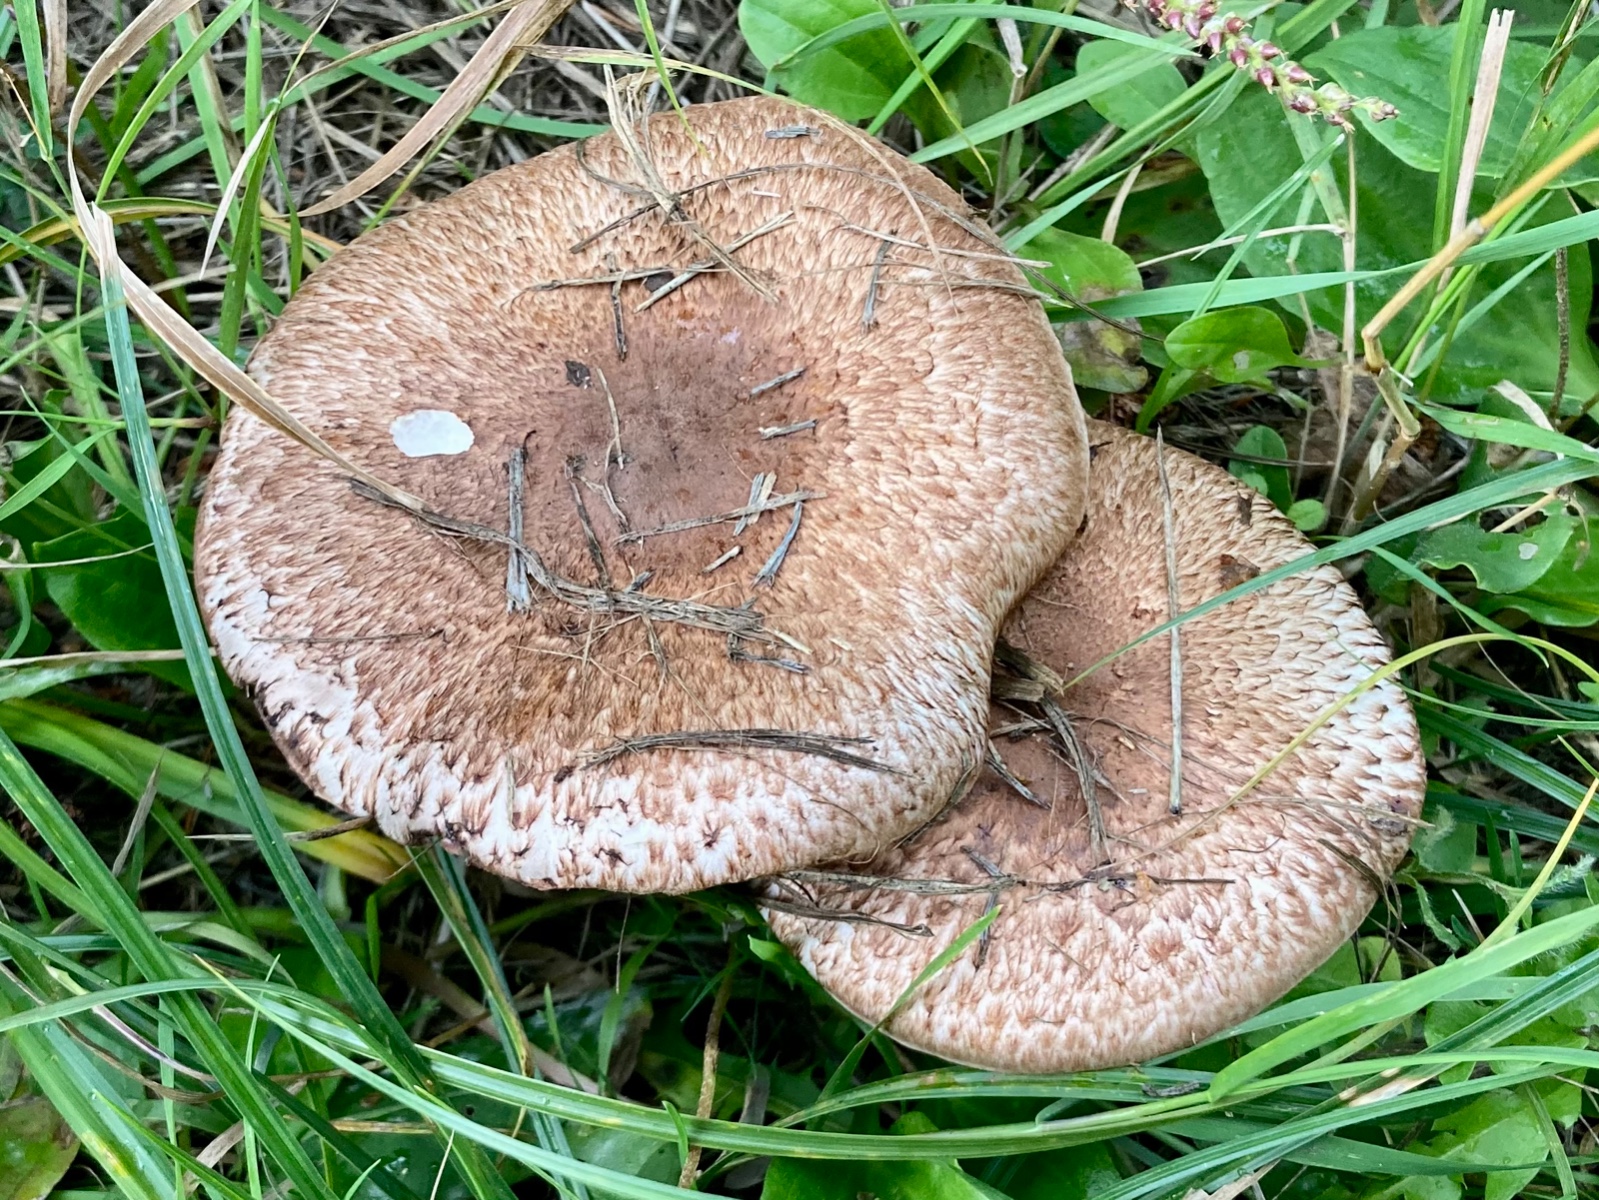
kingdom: Fungi
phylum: Basidiomycota
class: Agaricomycetes
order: Agaricales
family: Agaricaceae
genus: Agaricus
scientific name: Agaricus langei
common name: stor blod-champignon
